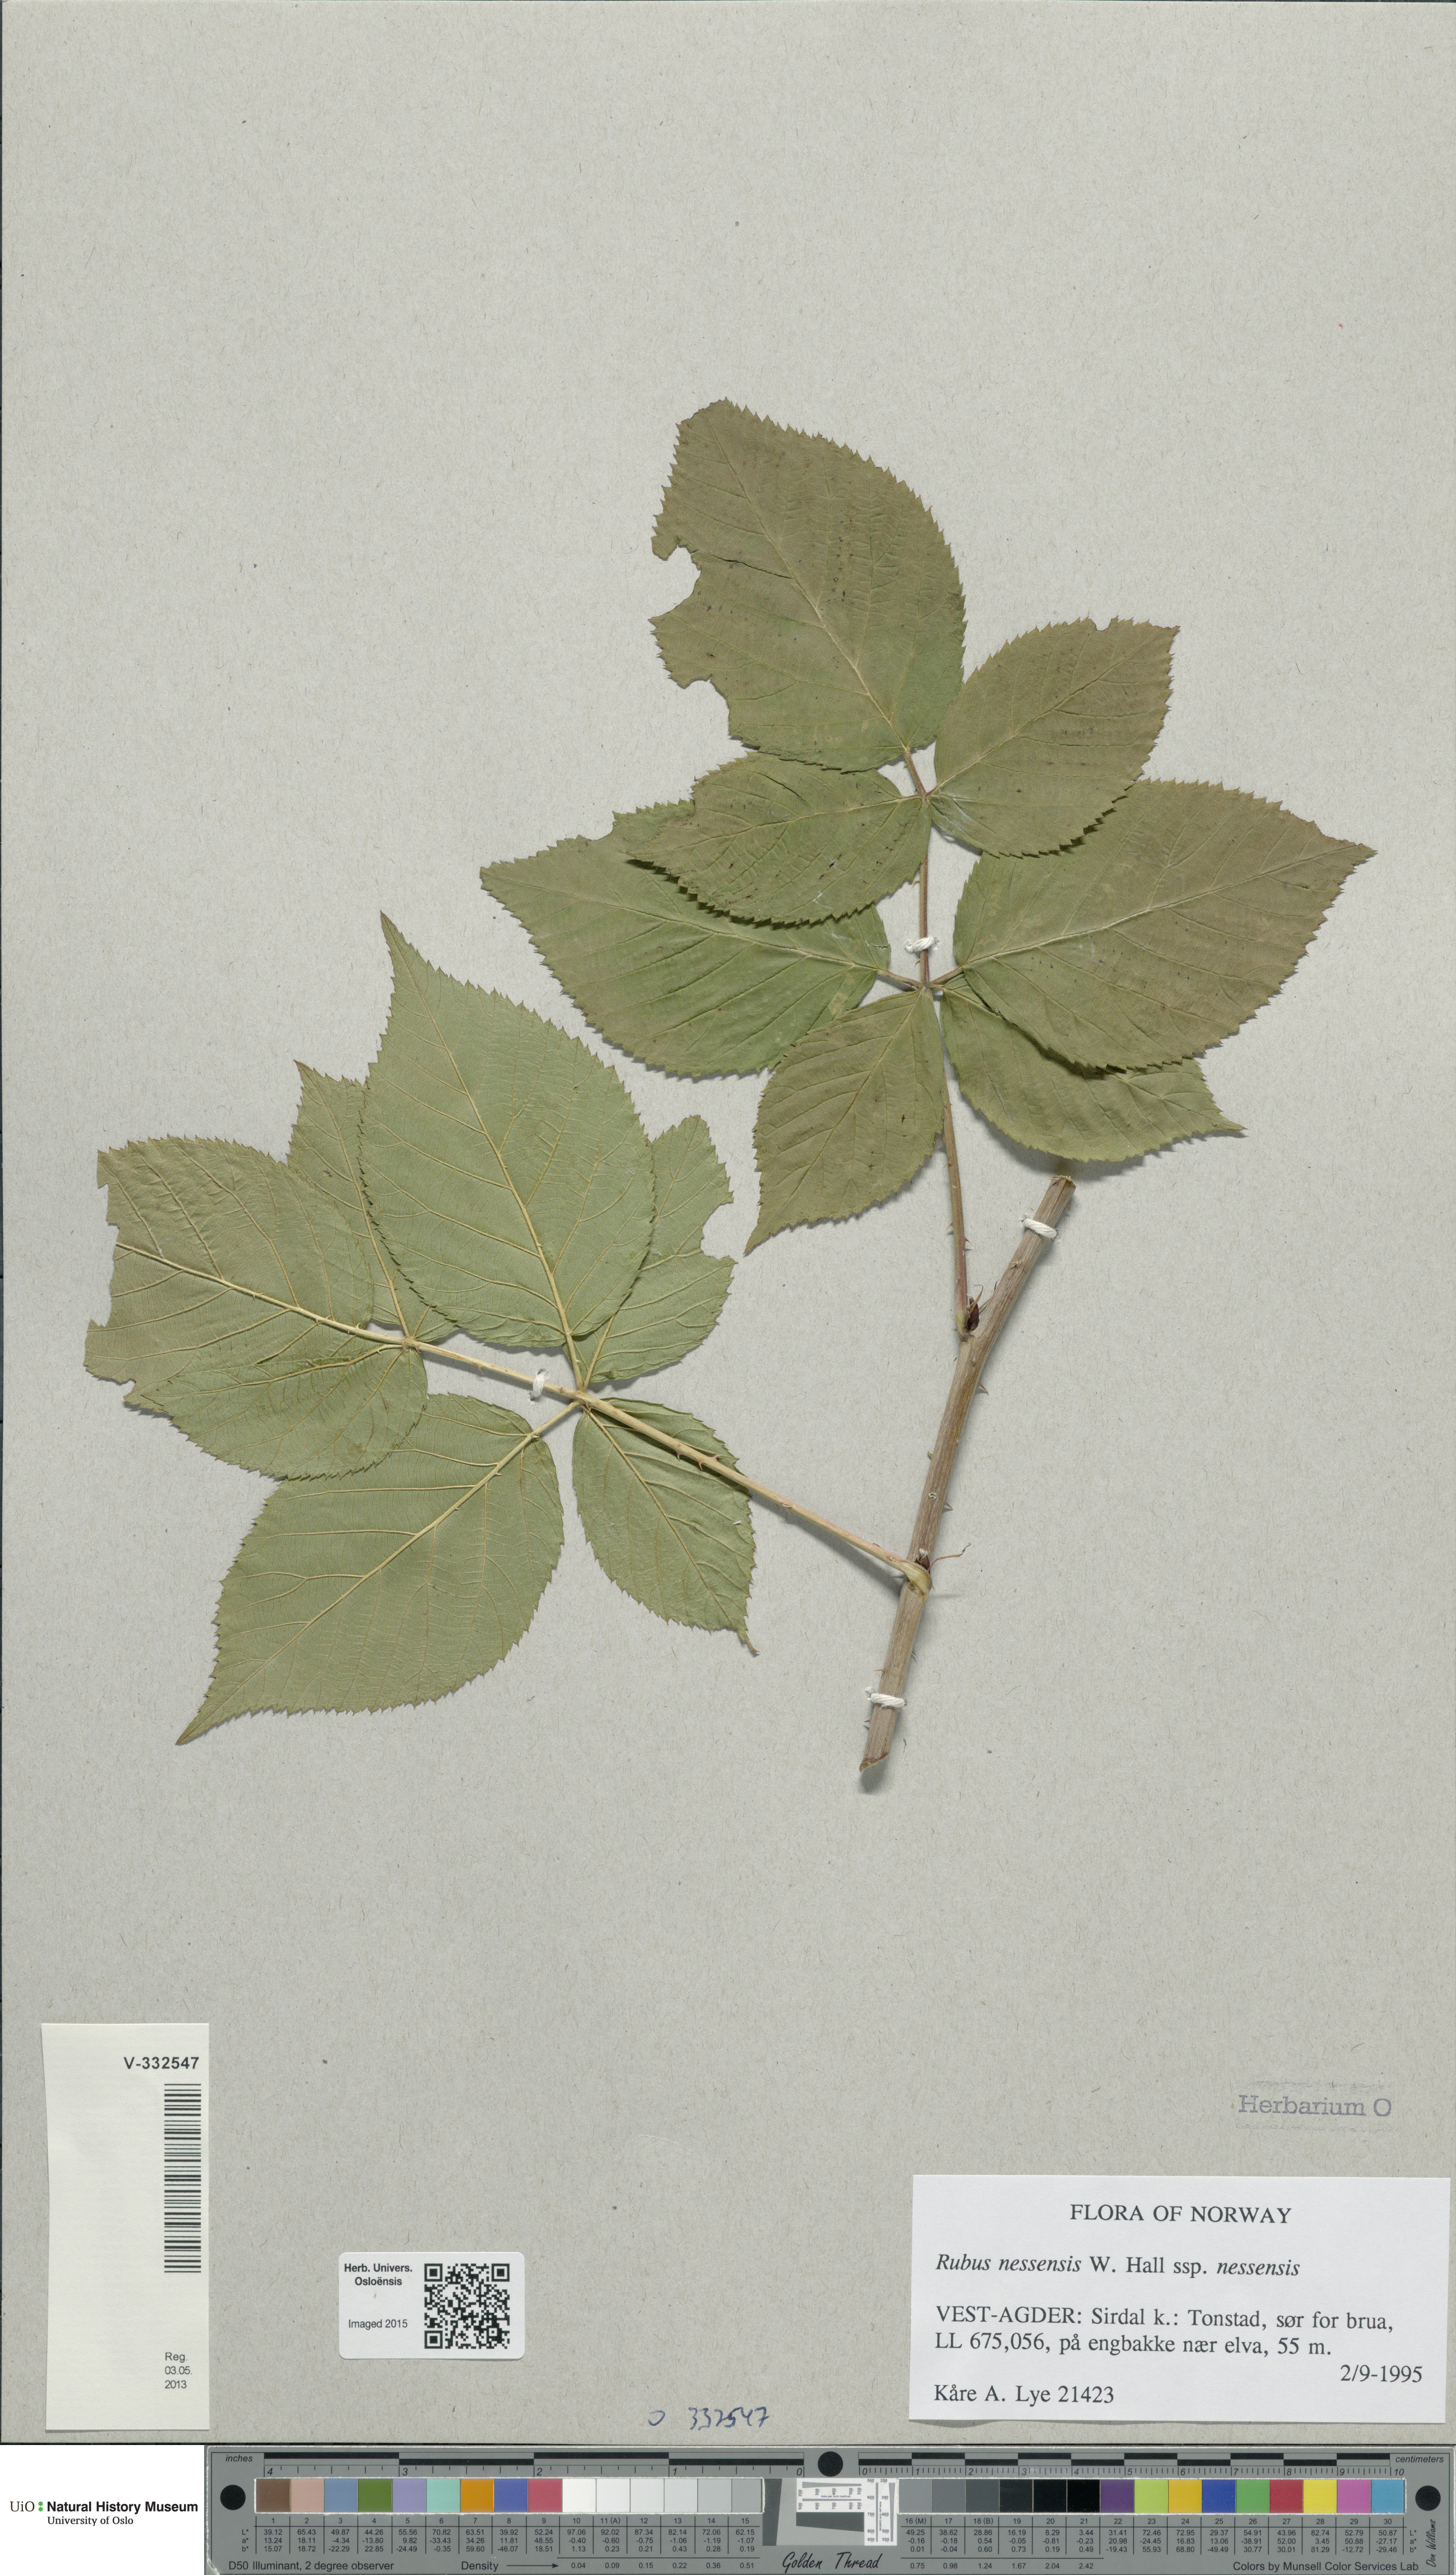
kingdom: Plantae
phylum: Tracheophyta
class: Magnoliopsida
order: Rosales
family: Rosaceae
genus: Rubus
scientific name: Rubus polonicus
